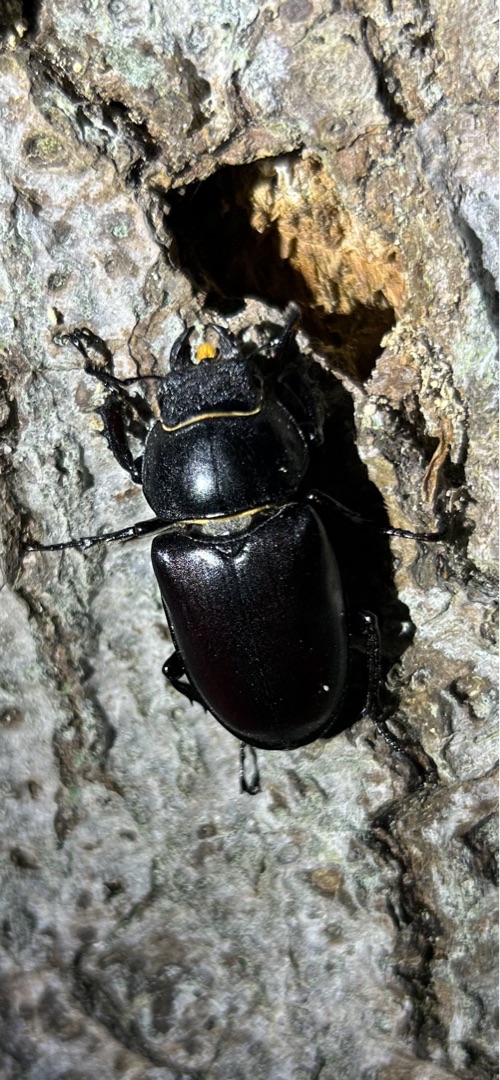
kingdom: Animalia
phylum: Arthropoda
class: Insecta
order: Coleoptera
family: Lucanidae
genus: Lucanus
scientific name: Lucanus cervus
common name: Eghjort
